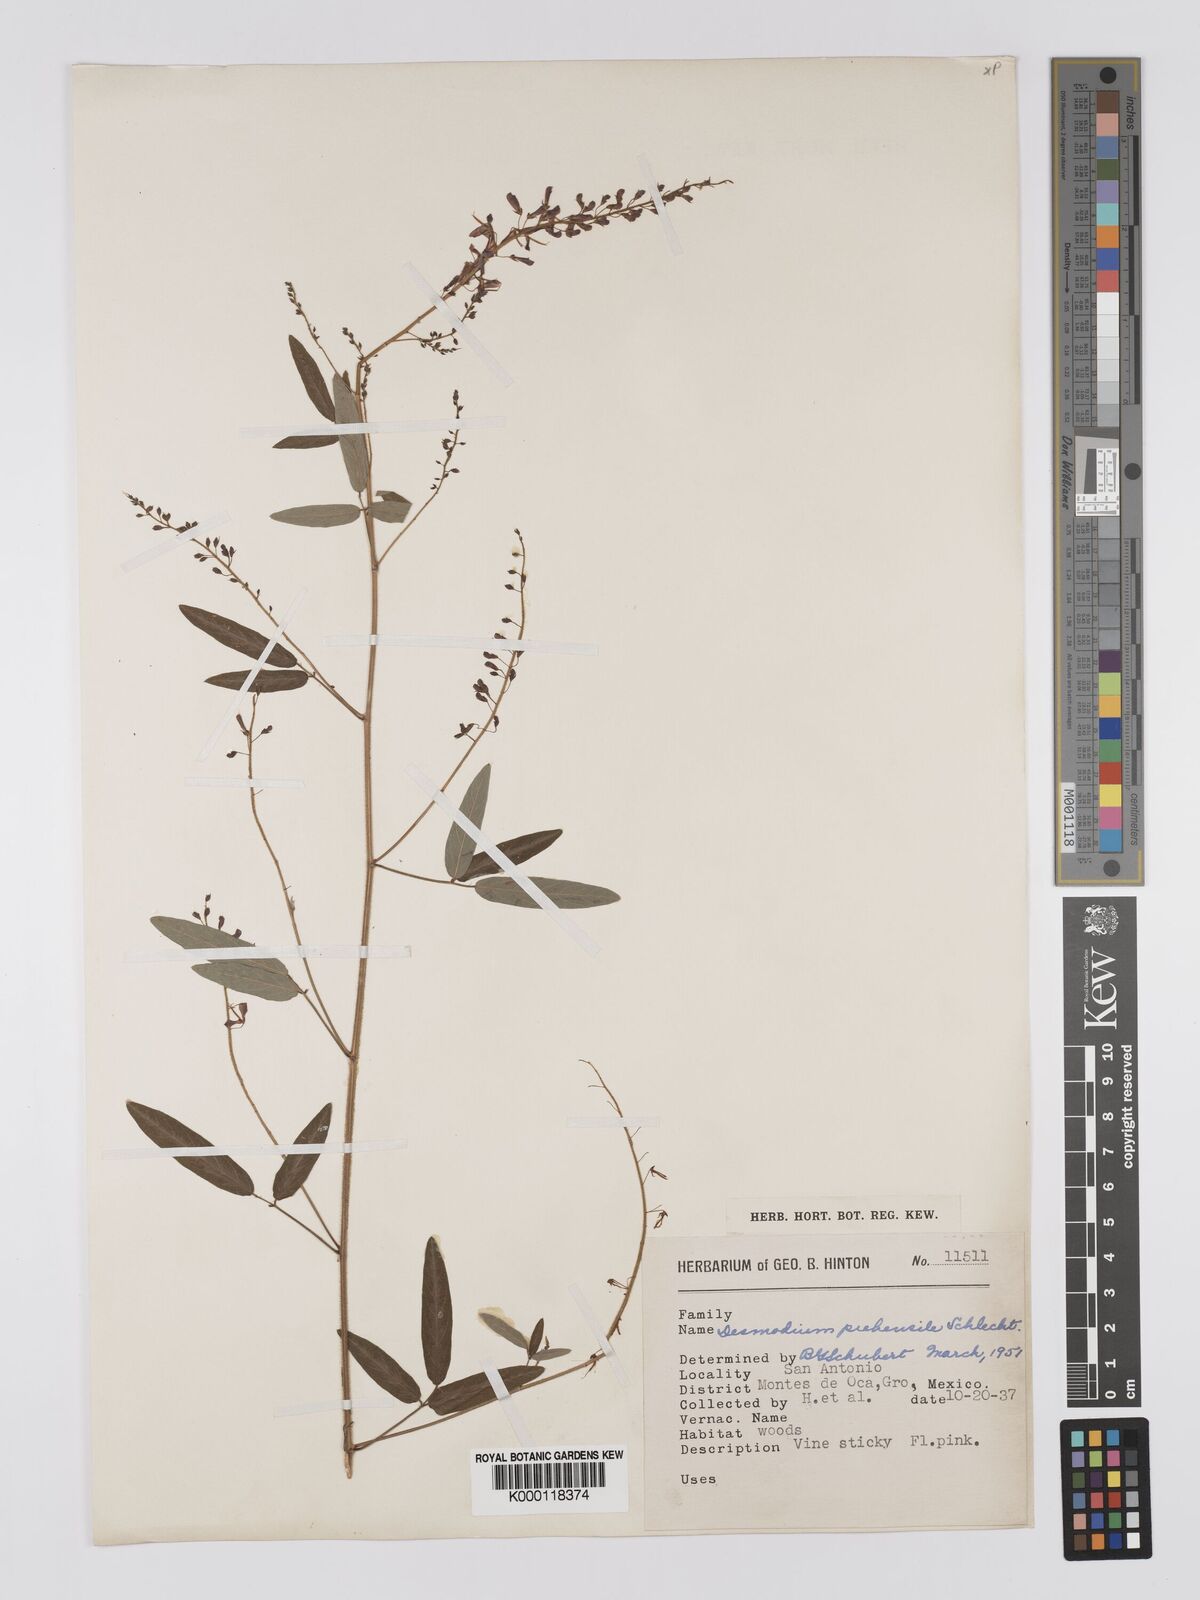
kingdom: Plantae
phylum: Tracheophyta
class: Magnoliopsida
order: Fabales
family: Fabaceae
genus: Desmodium
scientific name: Desmodium prehensile
